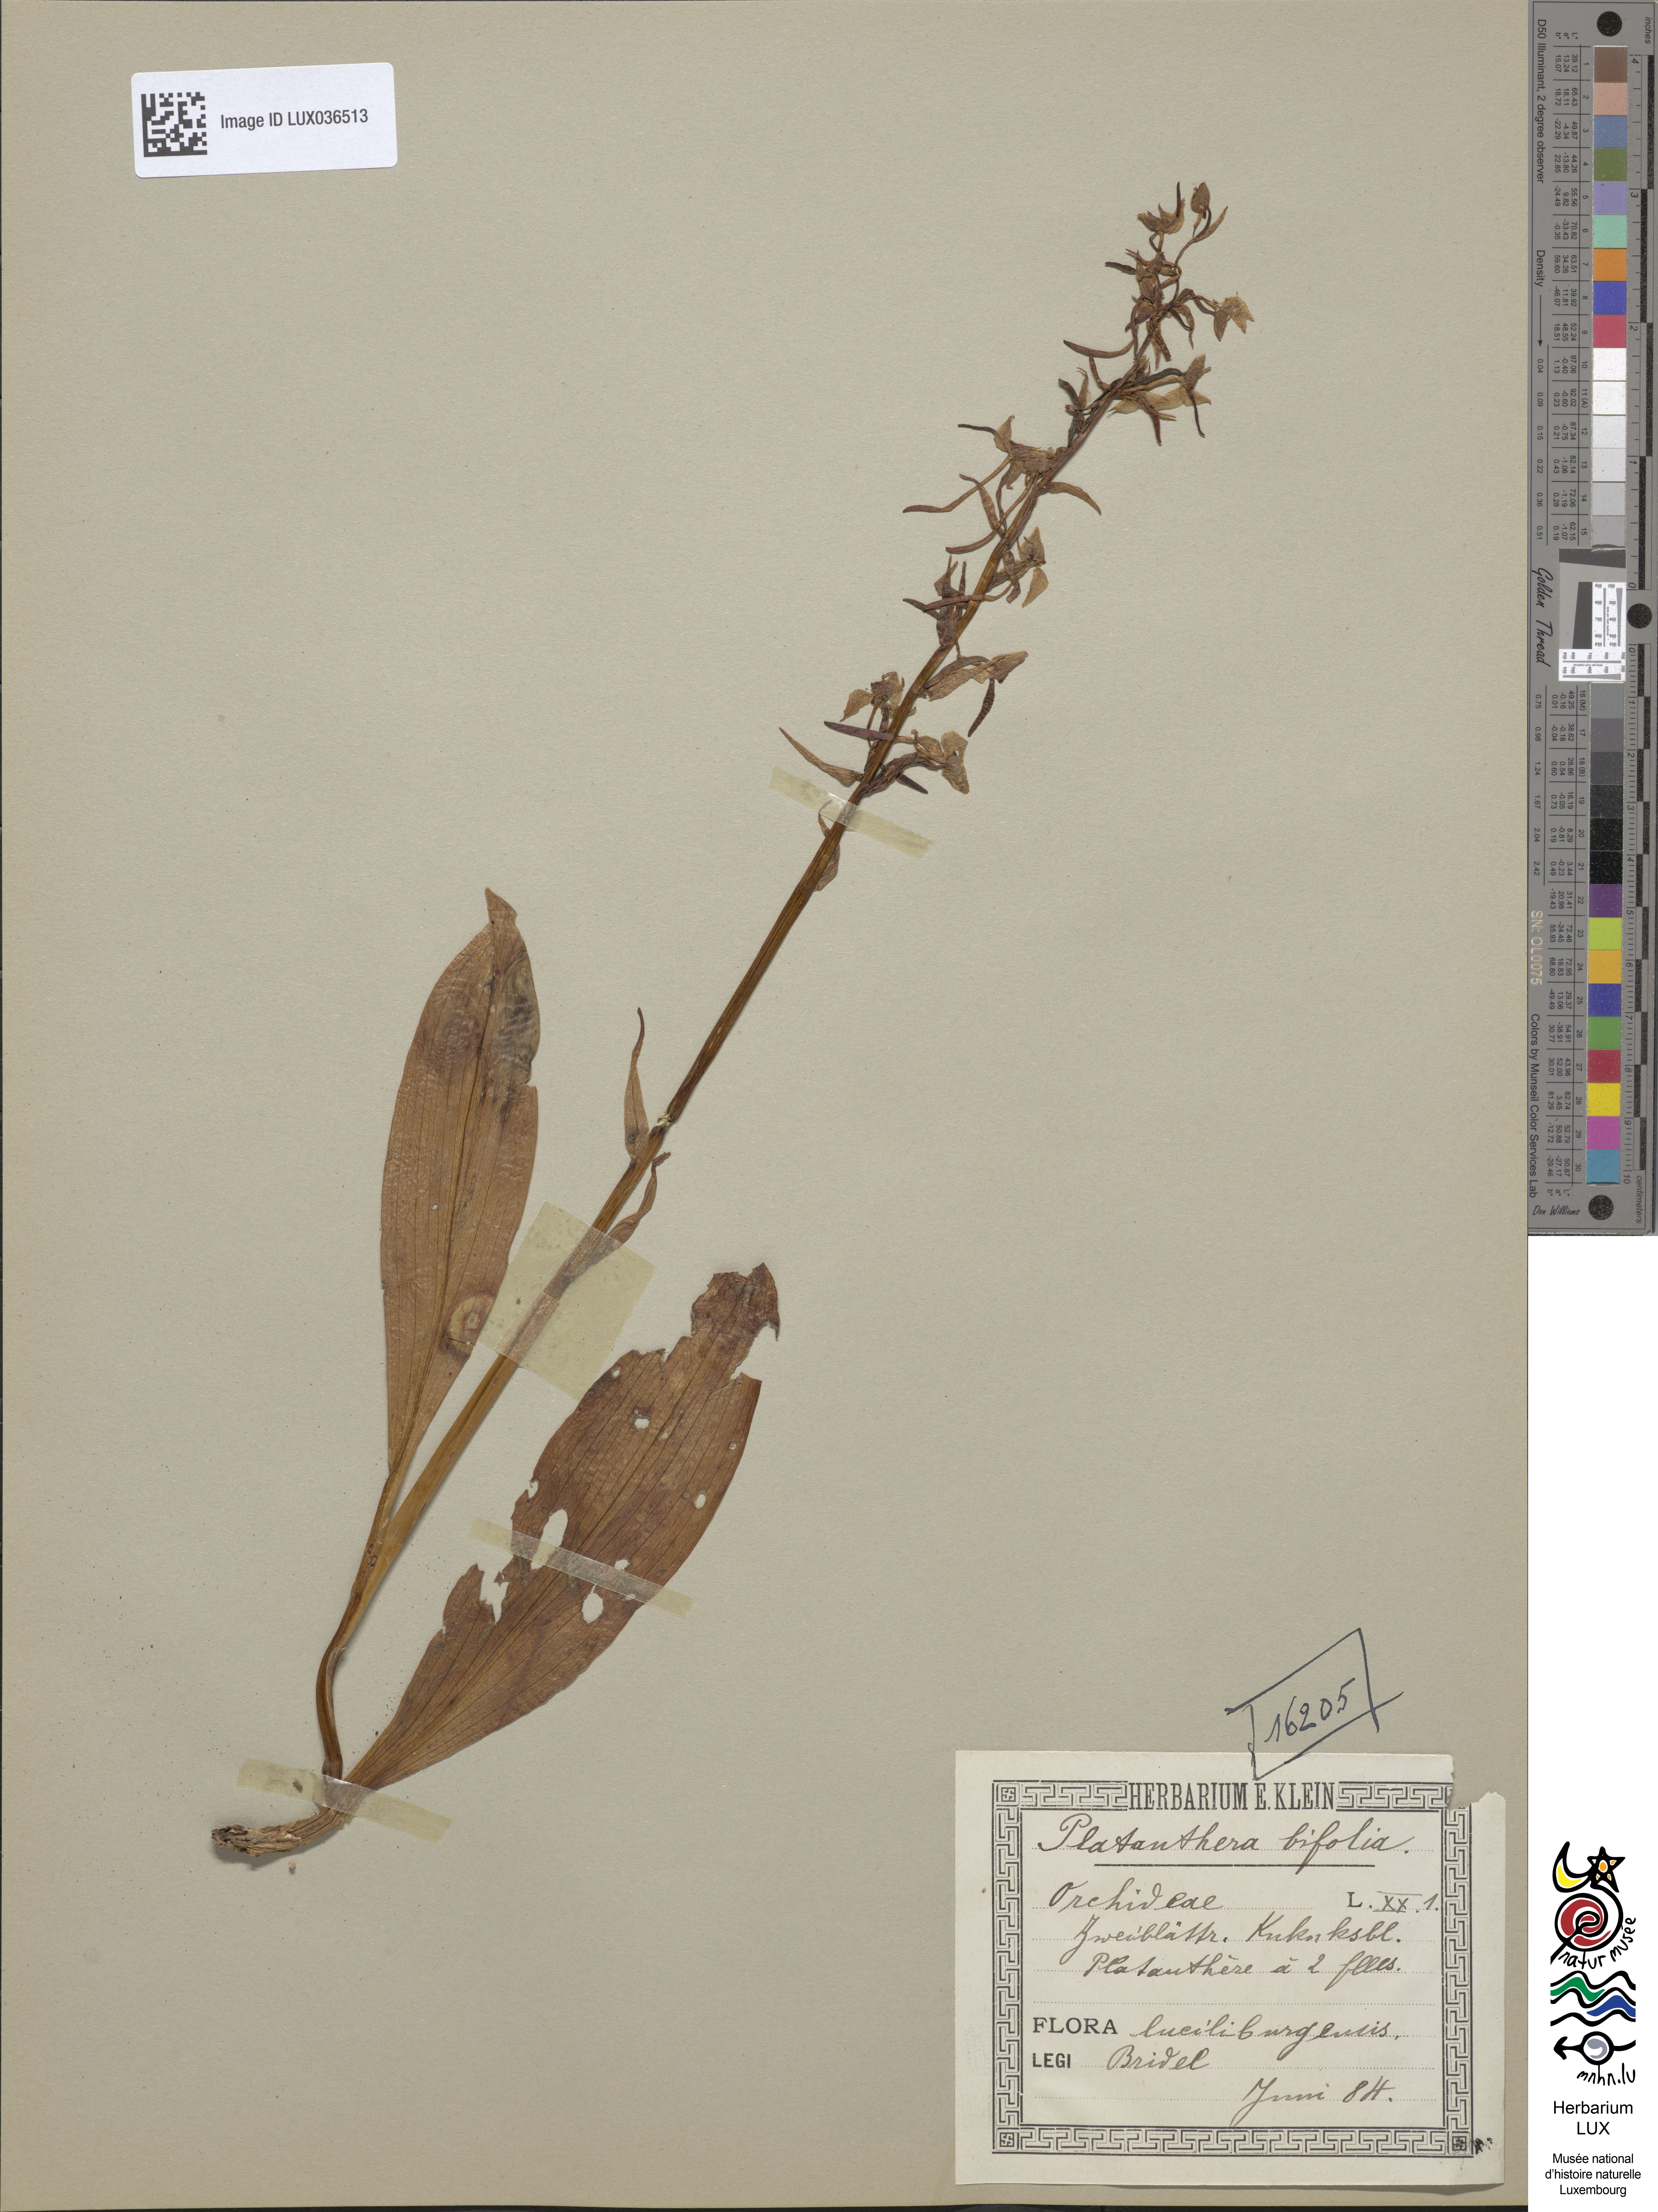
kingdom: Plantae
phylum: Tracheophyta
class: Liliopsida
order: Asparagales
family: Orchidaceae
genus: Platanthera
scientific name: Platanthera bifolia
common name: Lesser butterfly-orchid
